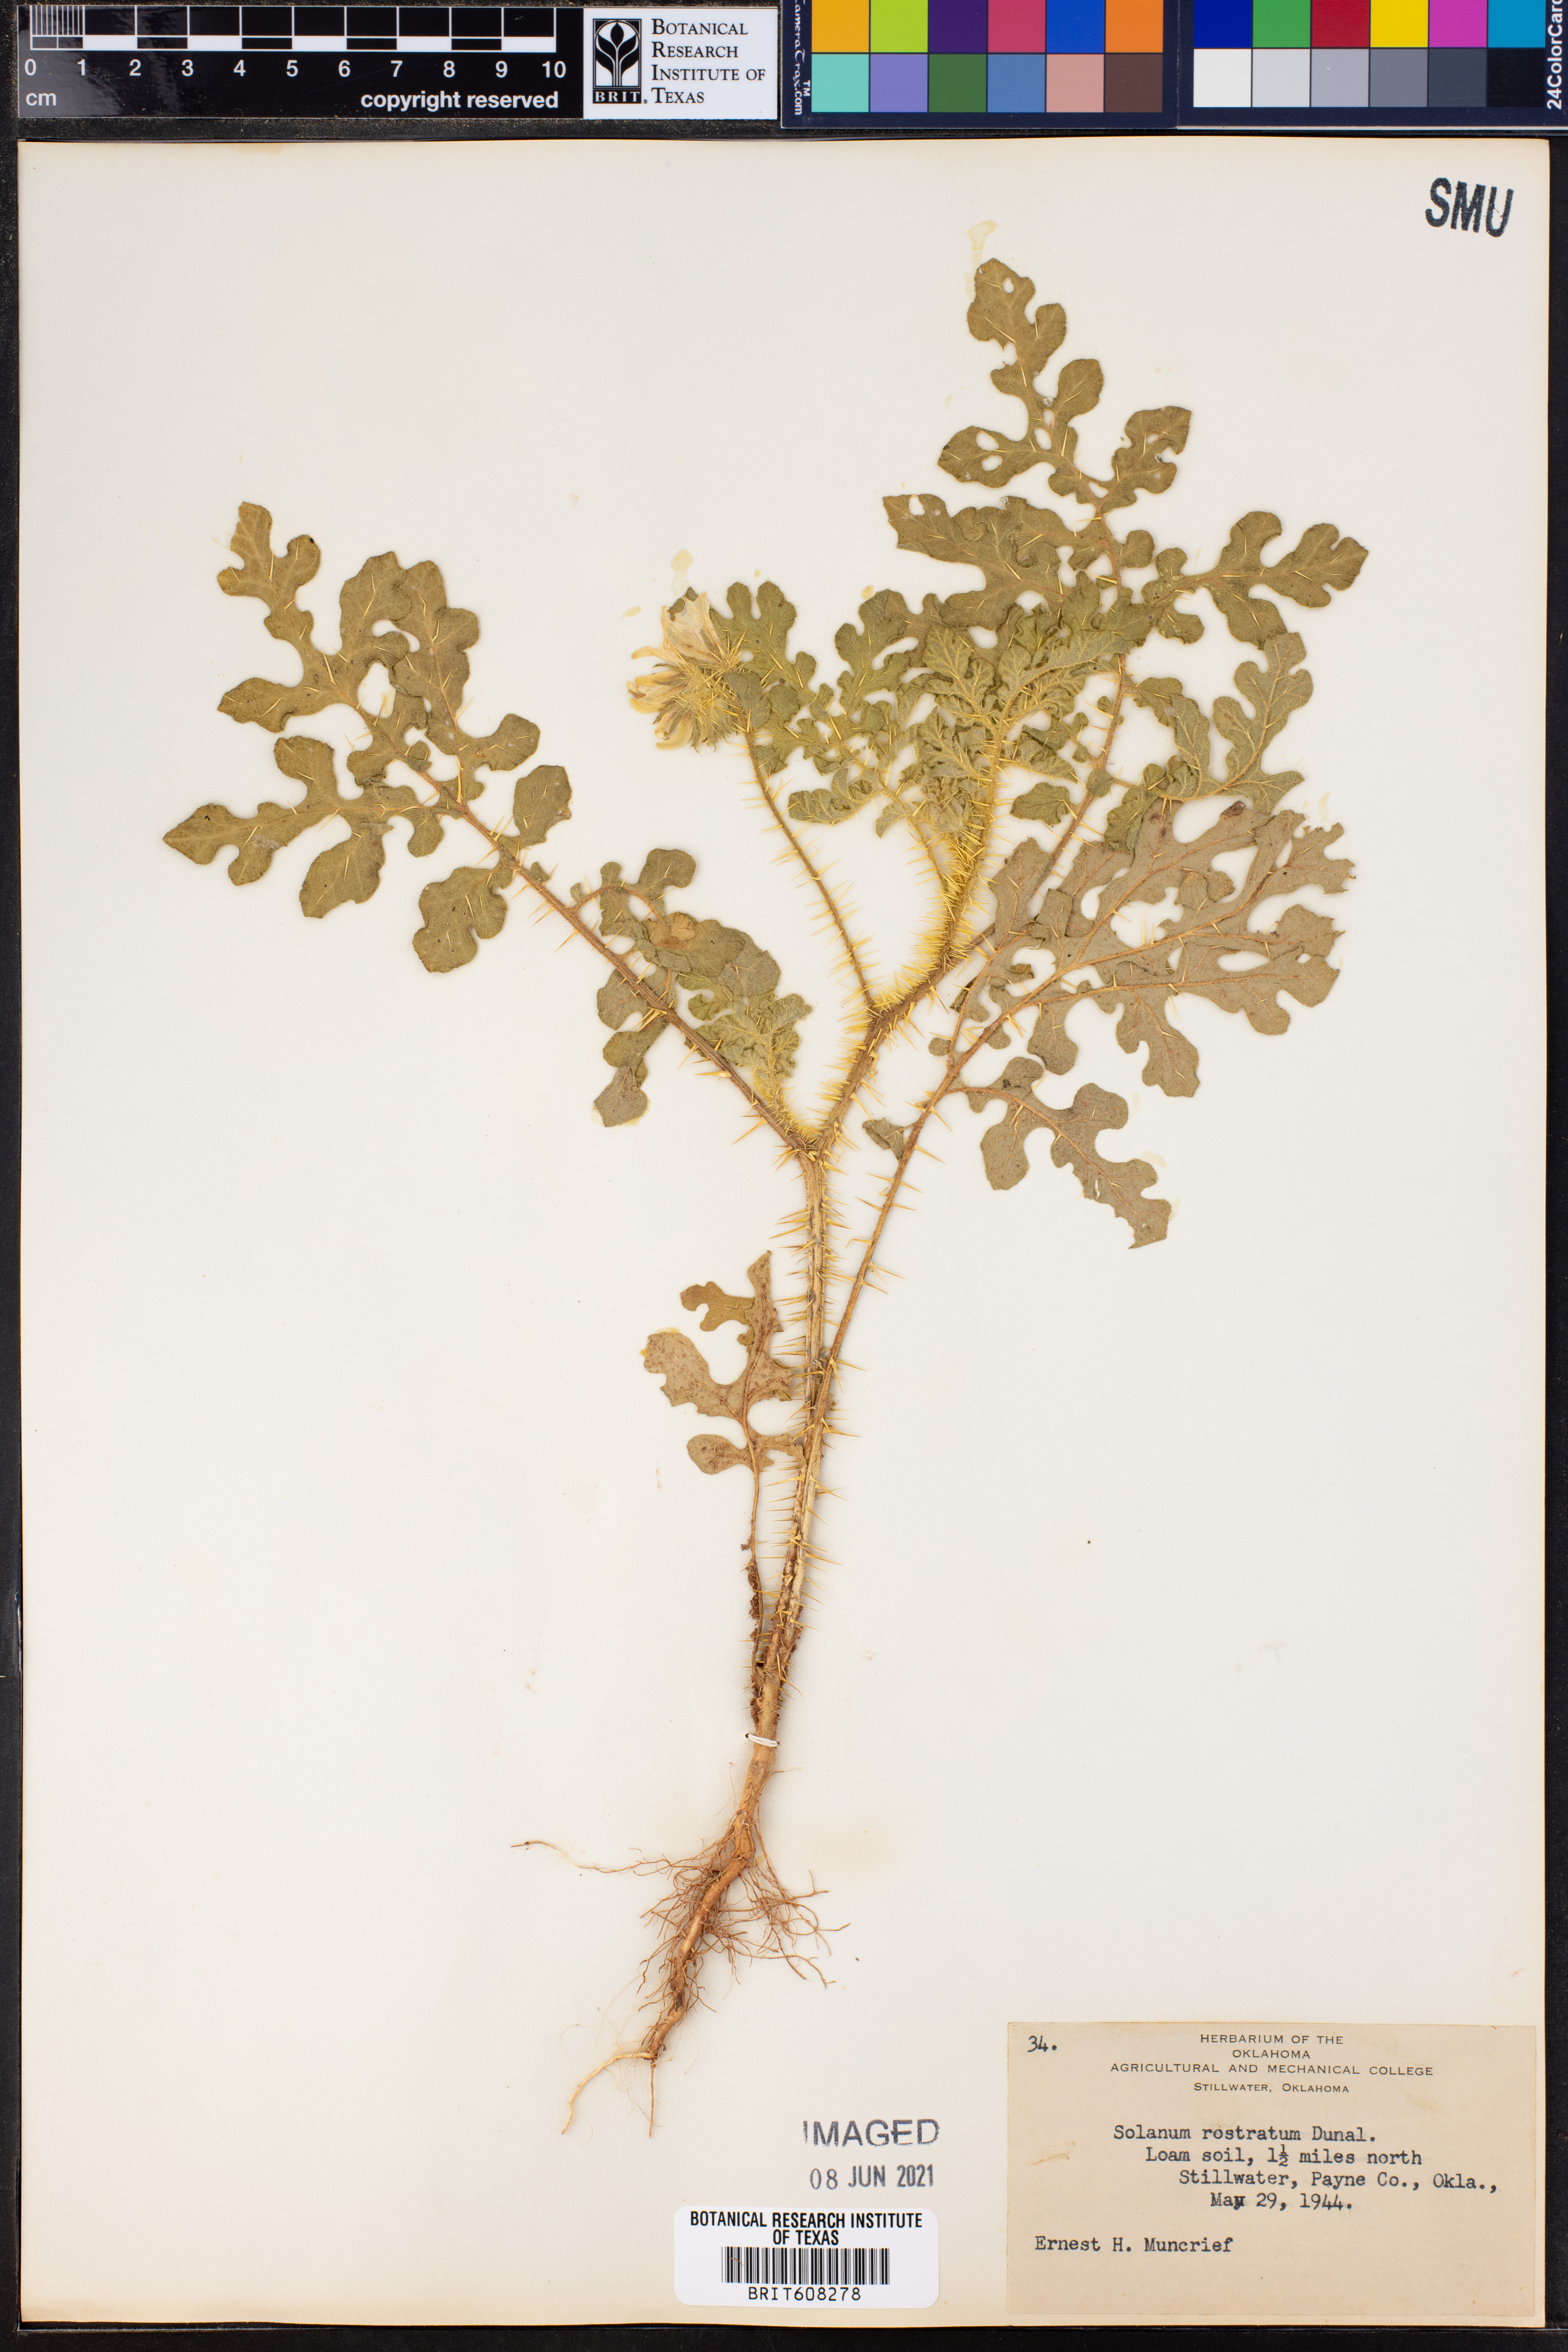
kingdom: Plantae
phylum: Tracheophyta
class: Magnoliopsida
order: Solanales
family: Solanaceae
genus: Solanum
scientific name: Solanum angustifolium
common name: Buffalobur nightshade
